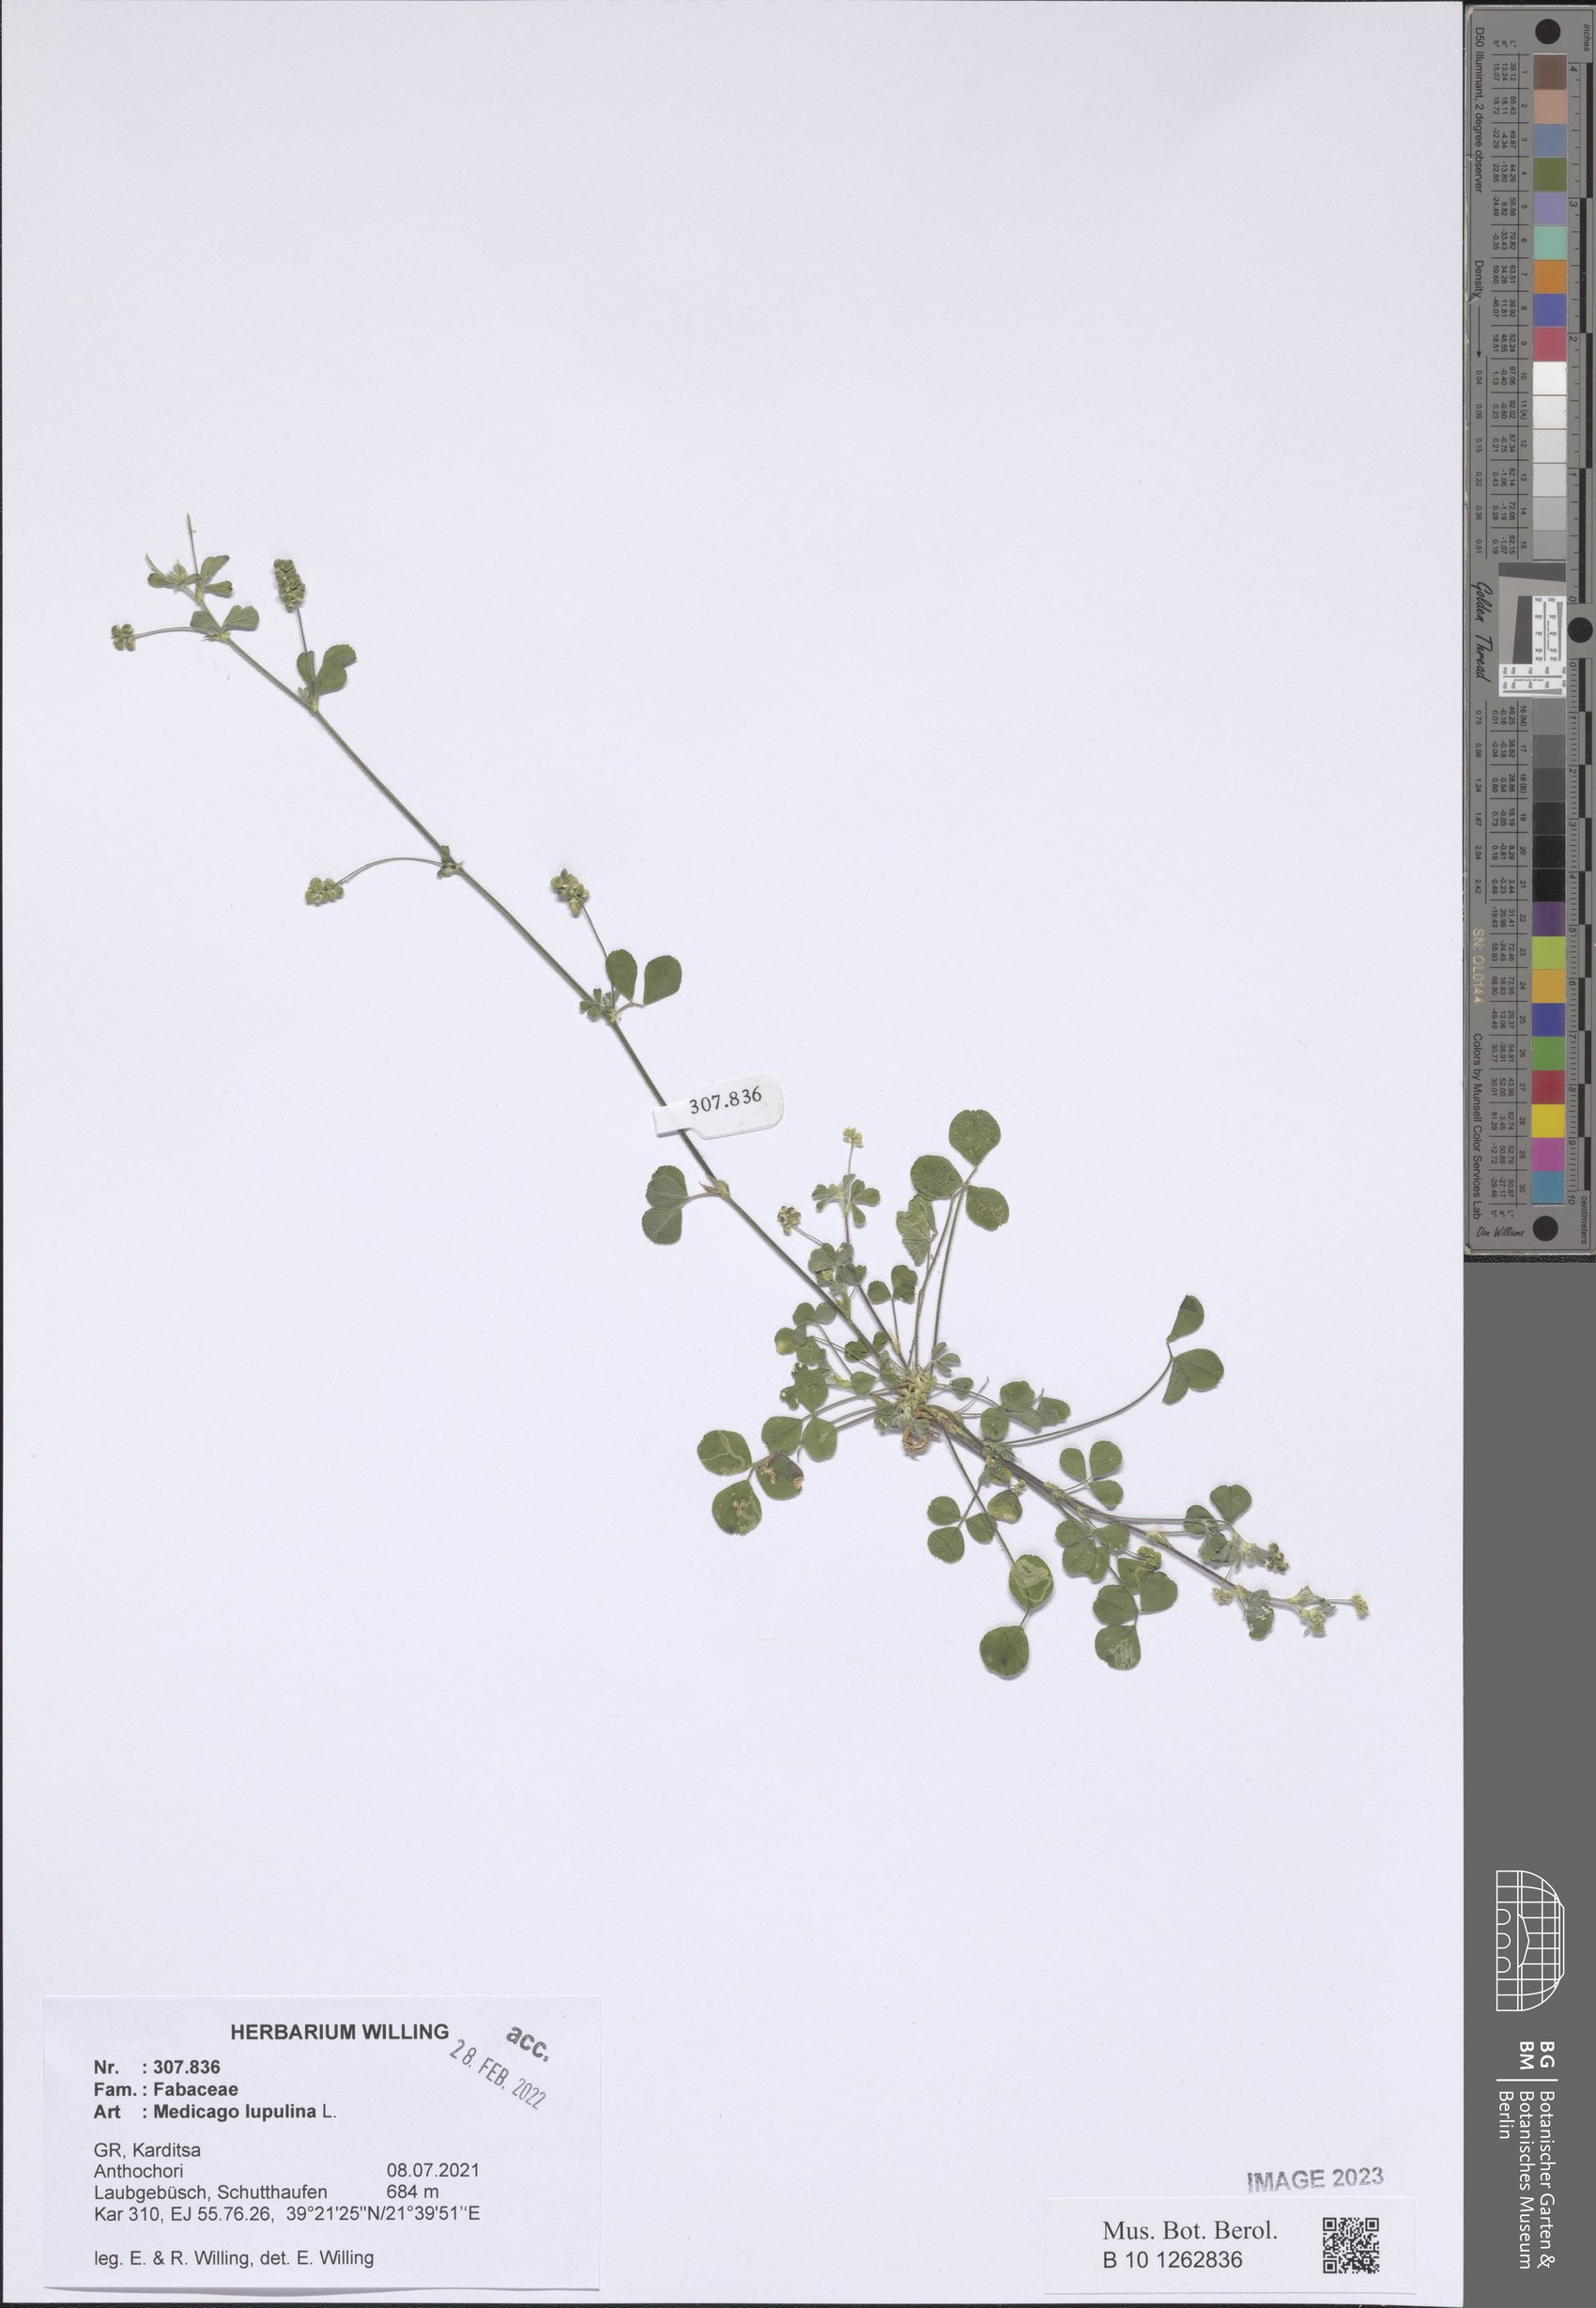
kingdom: Plantae
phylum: Tracheophyta
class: Magnoliopsida
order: Fabales
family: Fabaceae
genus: Medicago
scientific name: Medicago lupulina
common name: Black medick
